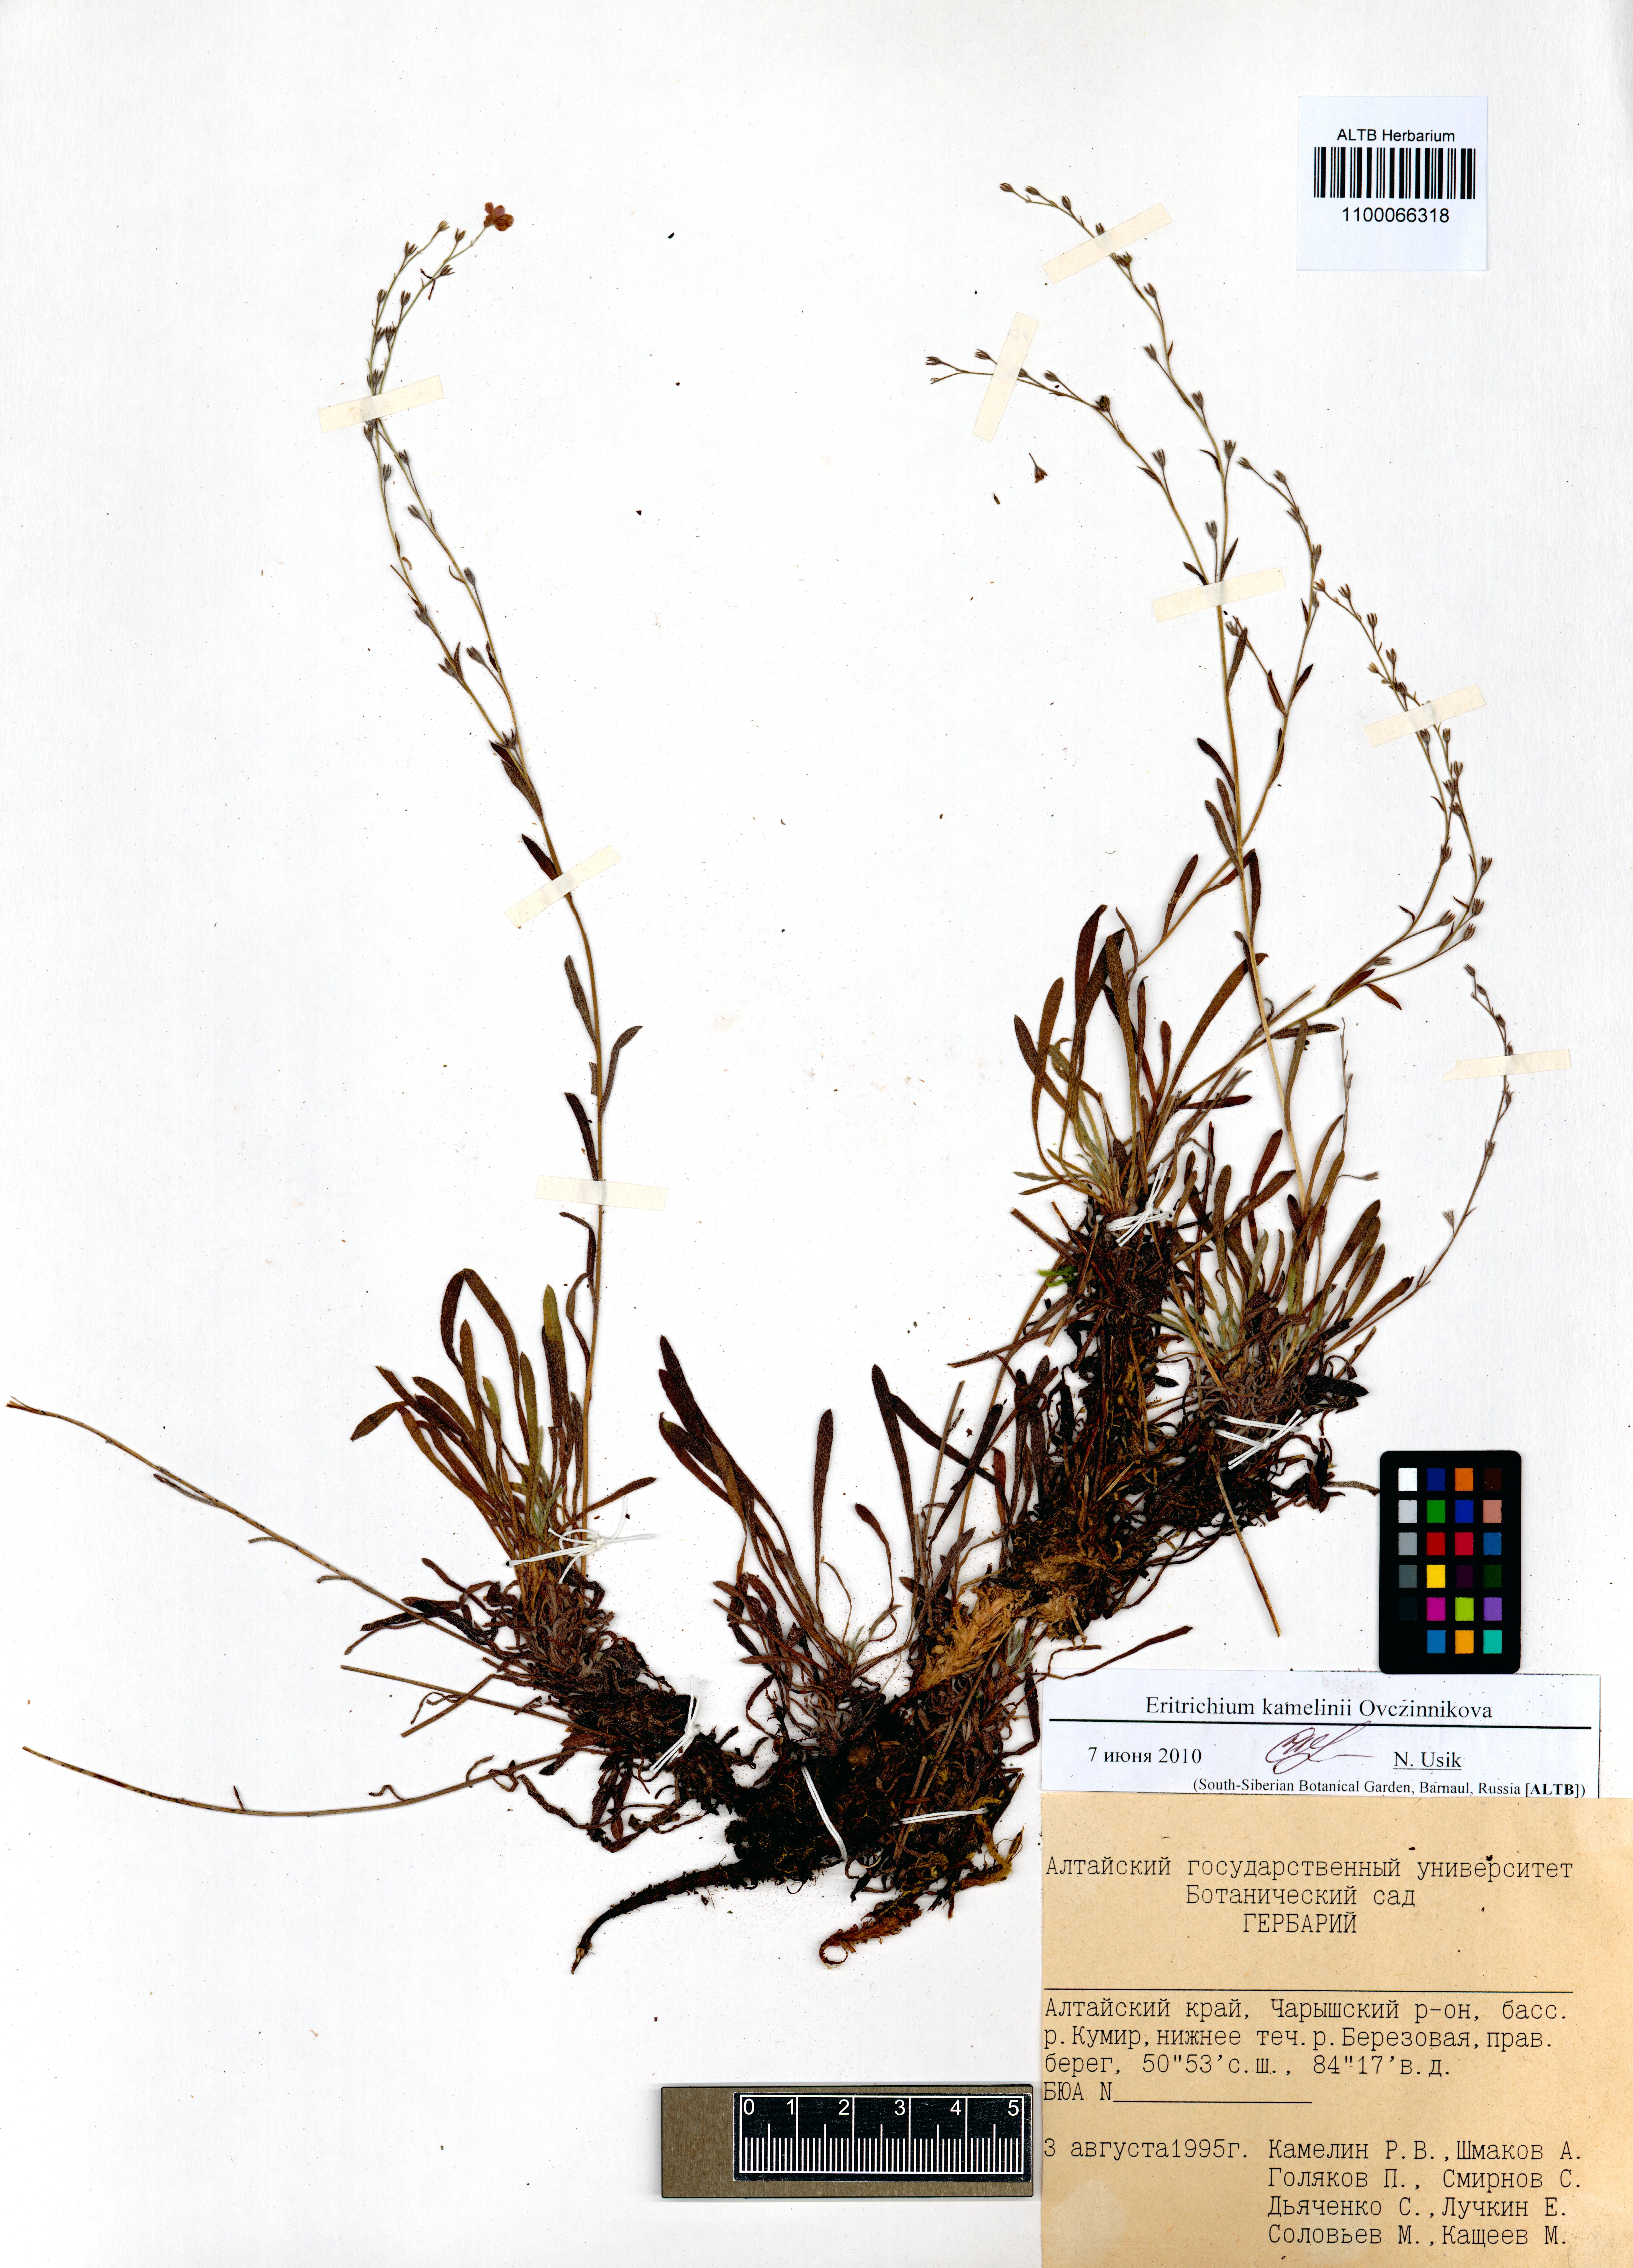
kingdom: Plantae
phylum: Tracheophyta
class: Magnoliopsida
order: Boraginales
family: Boraginaceae
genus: Eritrichium
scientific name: Eritrichium kamelinii
